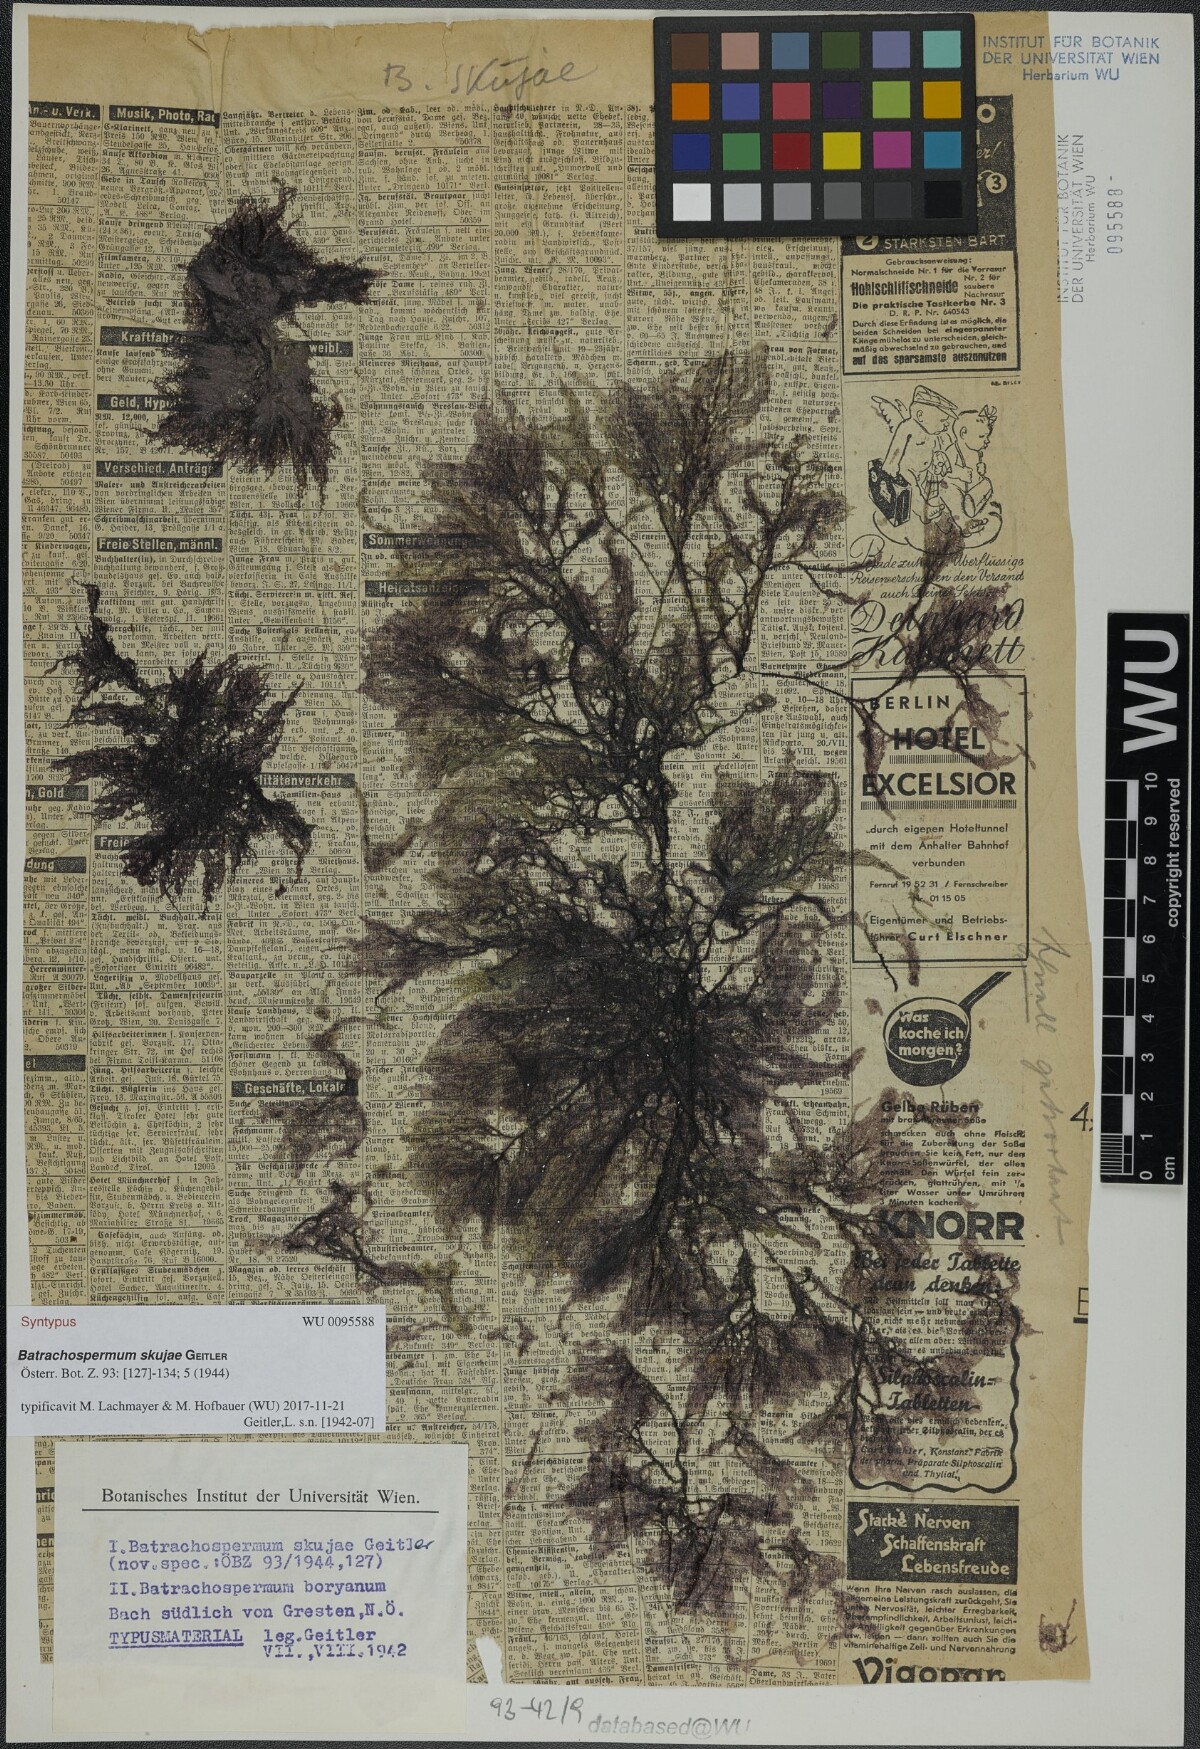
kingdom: Plantae
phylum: Rhodophyta
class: Florideophyceae
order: Batrachospermales
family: Batrachospermaceae
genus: Batrachospermum
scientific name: Batrachospermum gelatinosum
